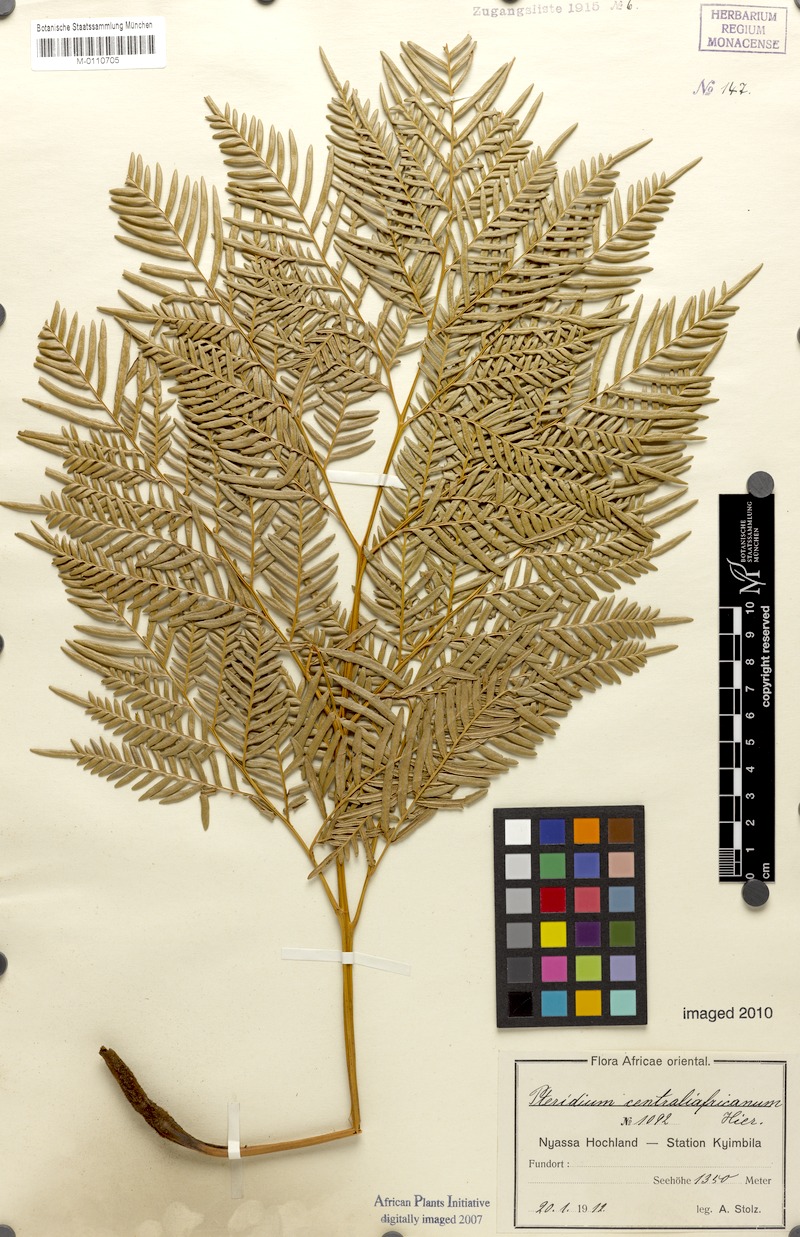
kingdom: Plantae
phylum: Tracheophyta
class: Polypodiopsida
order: Polypodiales
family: Dennstaedtiaceae
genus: Pteridium
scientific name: Pteridium aquilinum
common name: Bracken
